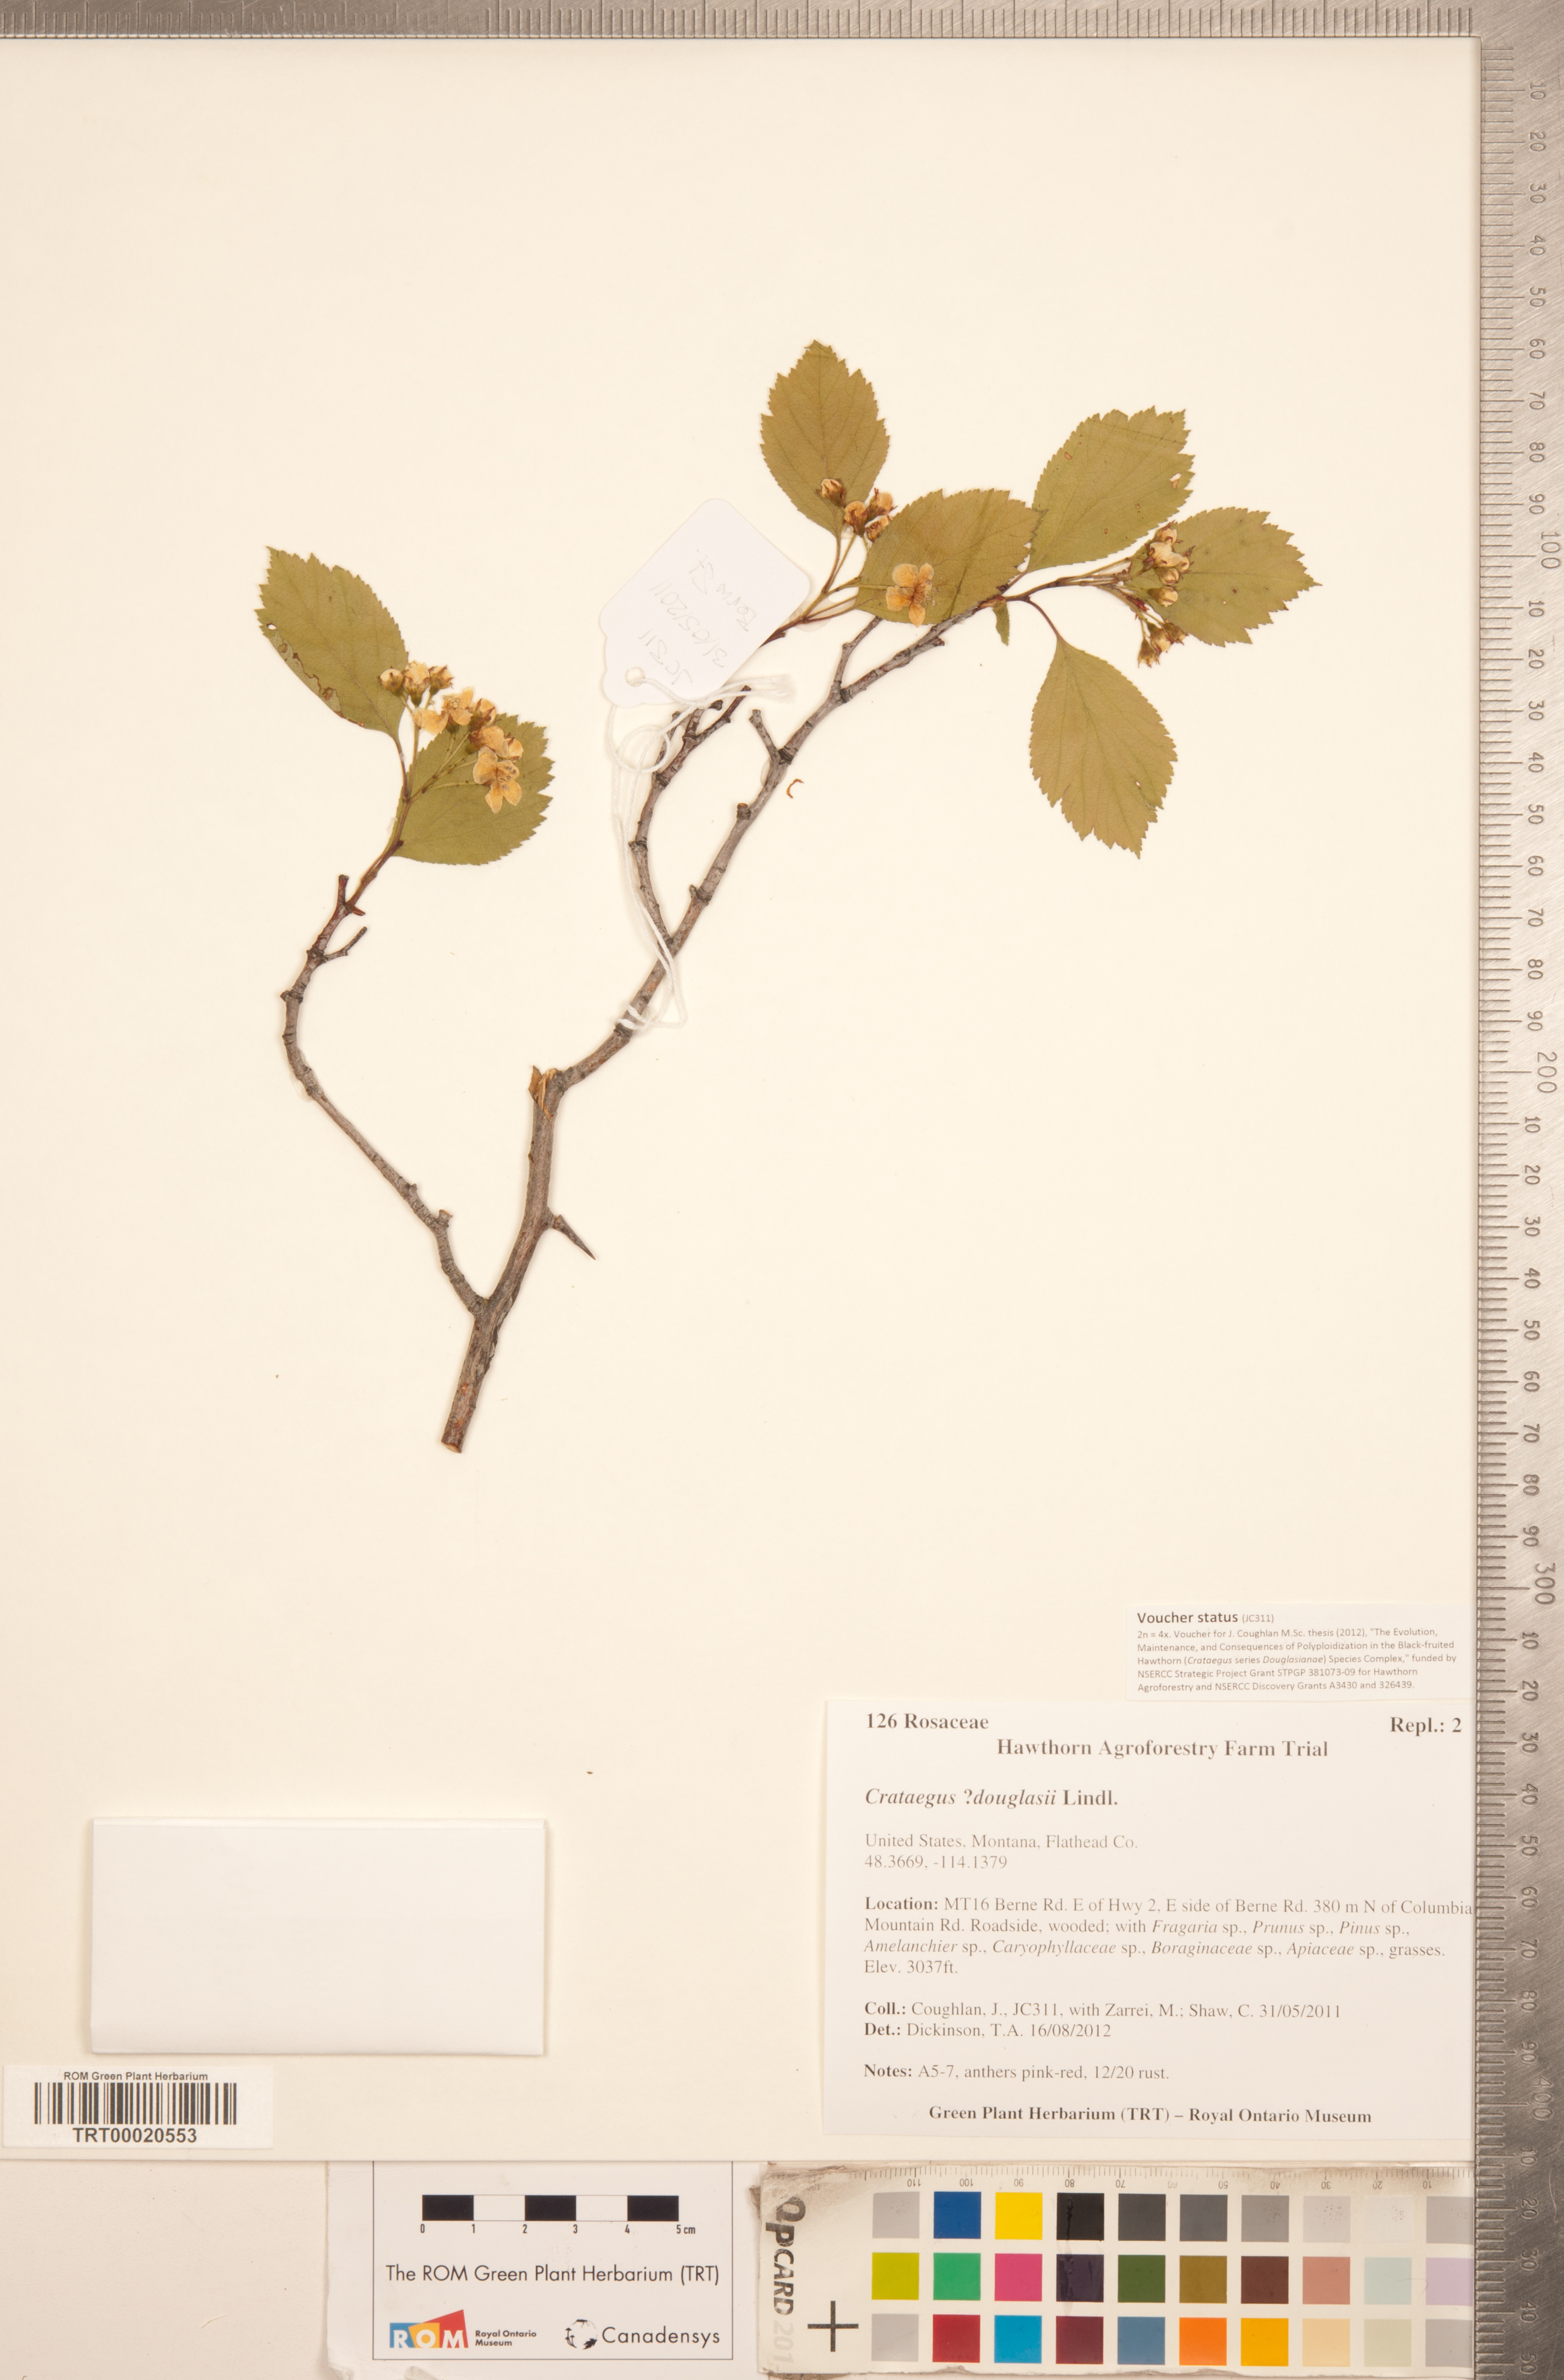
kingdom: Plantae
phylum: Tracheophyta
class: Magnoliopsida
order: Rosales
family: Rosaceae
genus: Crataegus
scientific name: Crataegus douglasii
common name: Black hawthorn
